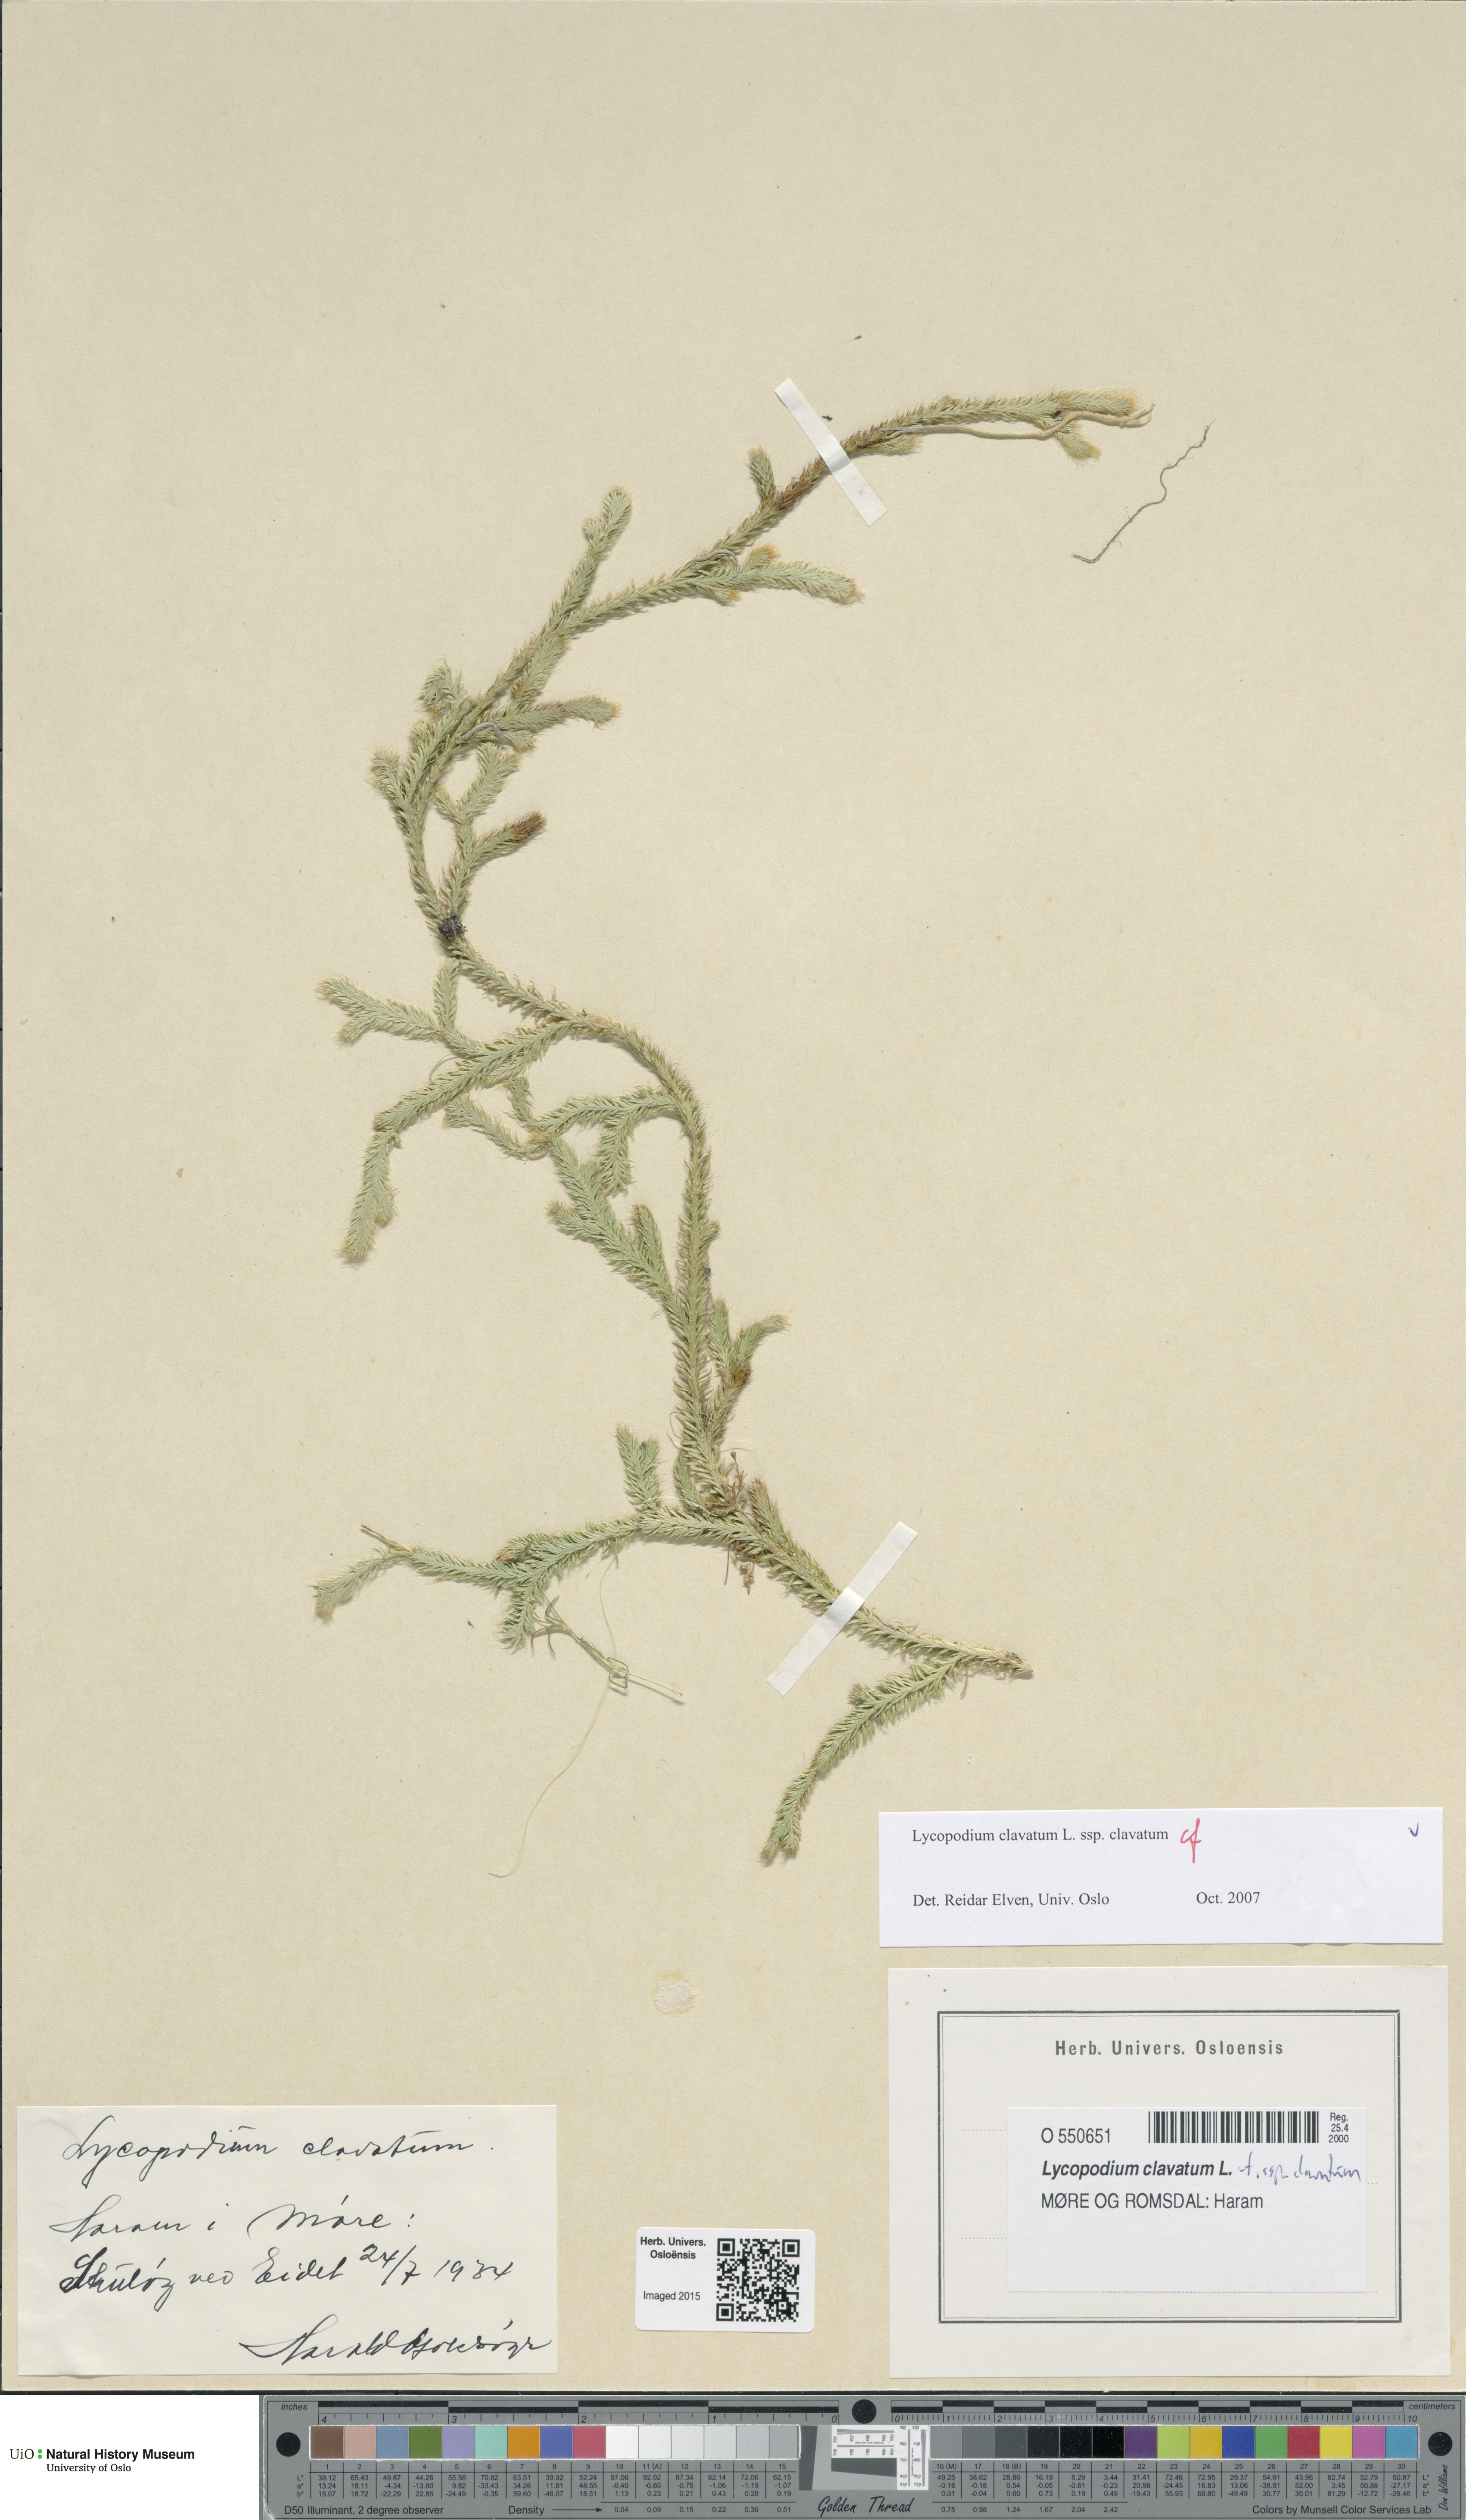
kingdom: Plantae
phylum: Tracheophyta
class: Lycopodiopsida
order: Lycopodiales
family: Lycopodiaceae
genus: Lycopodium
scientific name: Lycopodium clavatum
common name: Stag's-horn clubmoss
